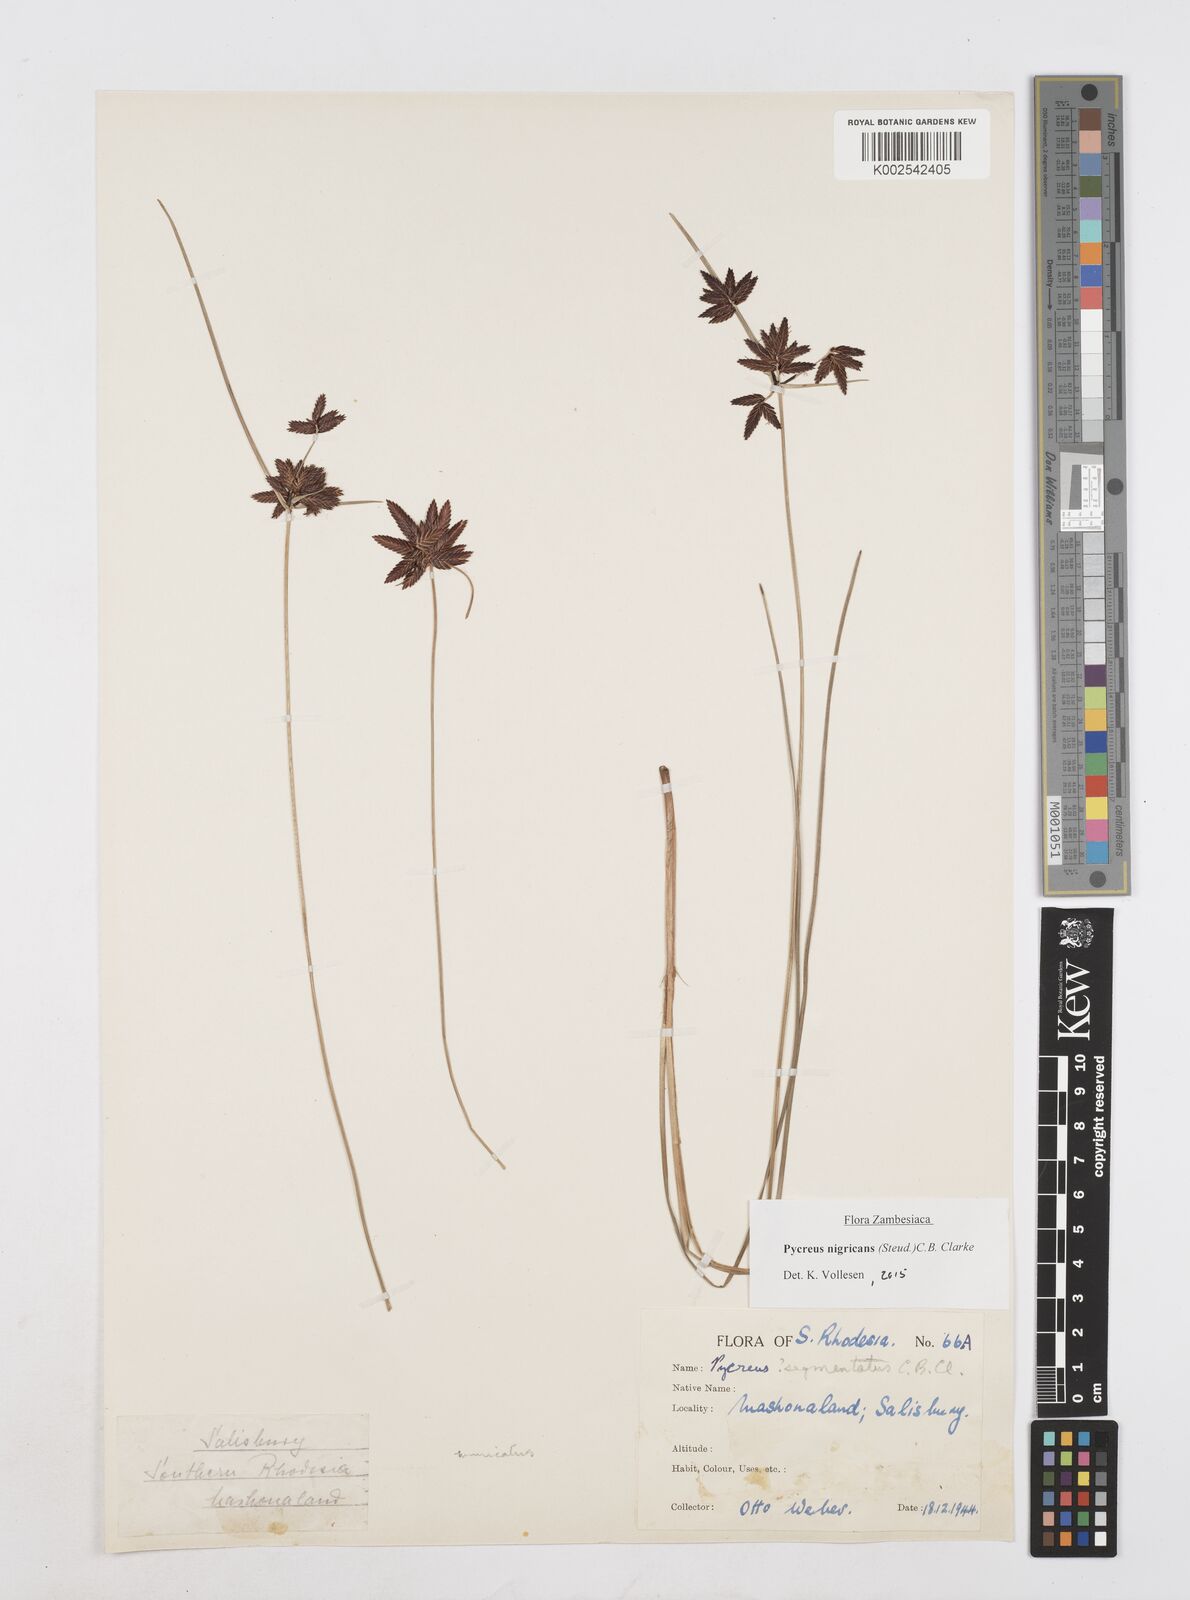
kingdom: Plantae
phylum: Tracheophyta
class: Liliopsida
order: Poales
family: Cyperaceae
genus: Cyperus
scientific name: Cyperus nigricans
